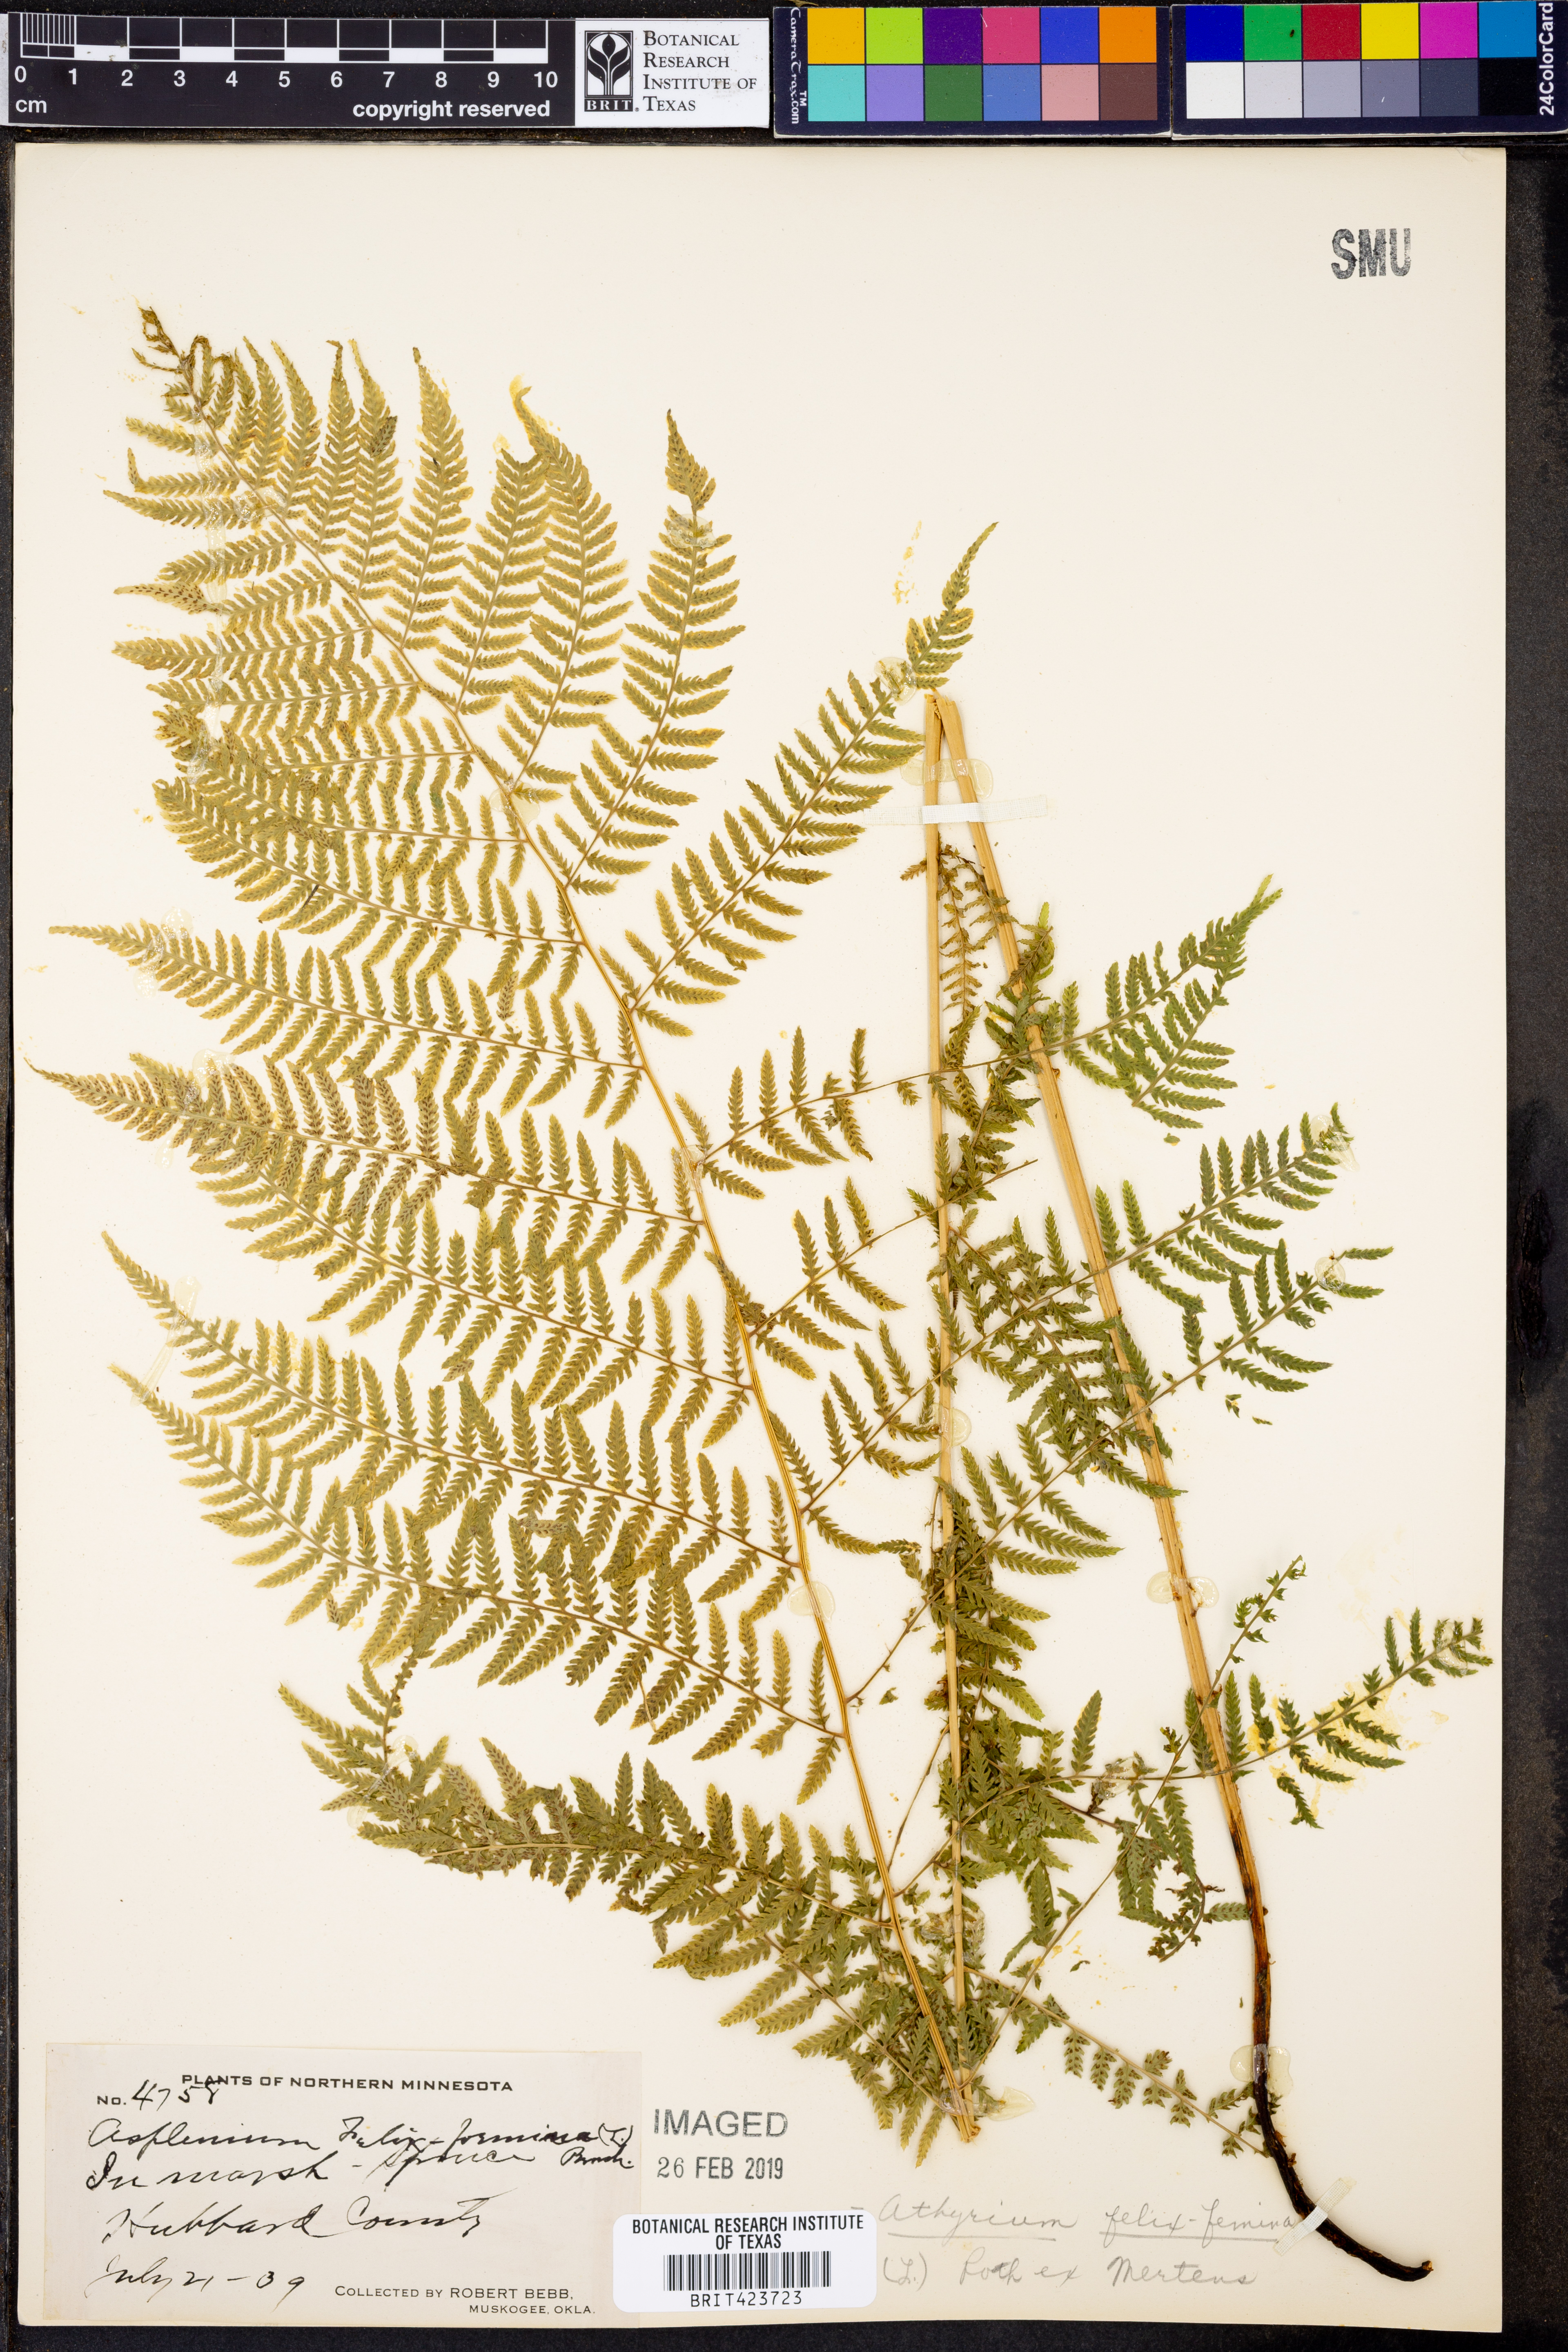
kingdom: Plantae
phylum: Tracheophyta
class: Polypodiopsida
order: Polypodiales
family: Athyriaceae
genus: Athyrium
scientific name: Athyrium filix-femina
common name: Lady fern
